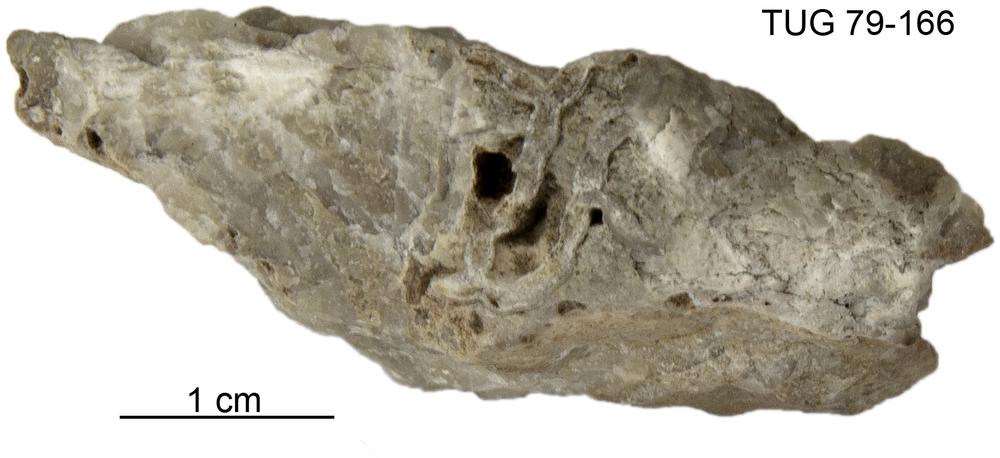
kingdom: Animalia
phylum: Cnidaria
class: Anthozoa
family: Cateniporidae
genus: Catenipora
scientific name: Catenipora
